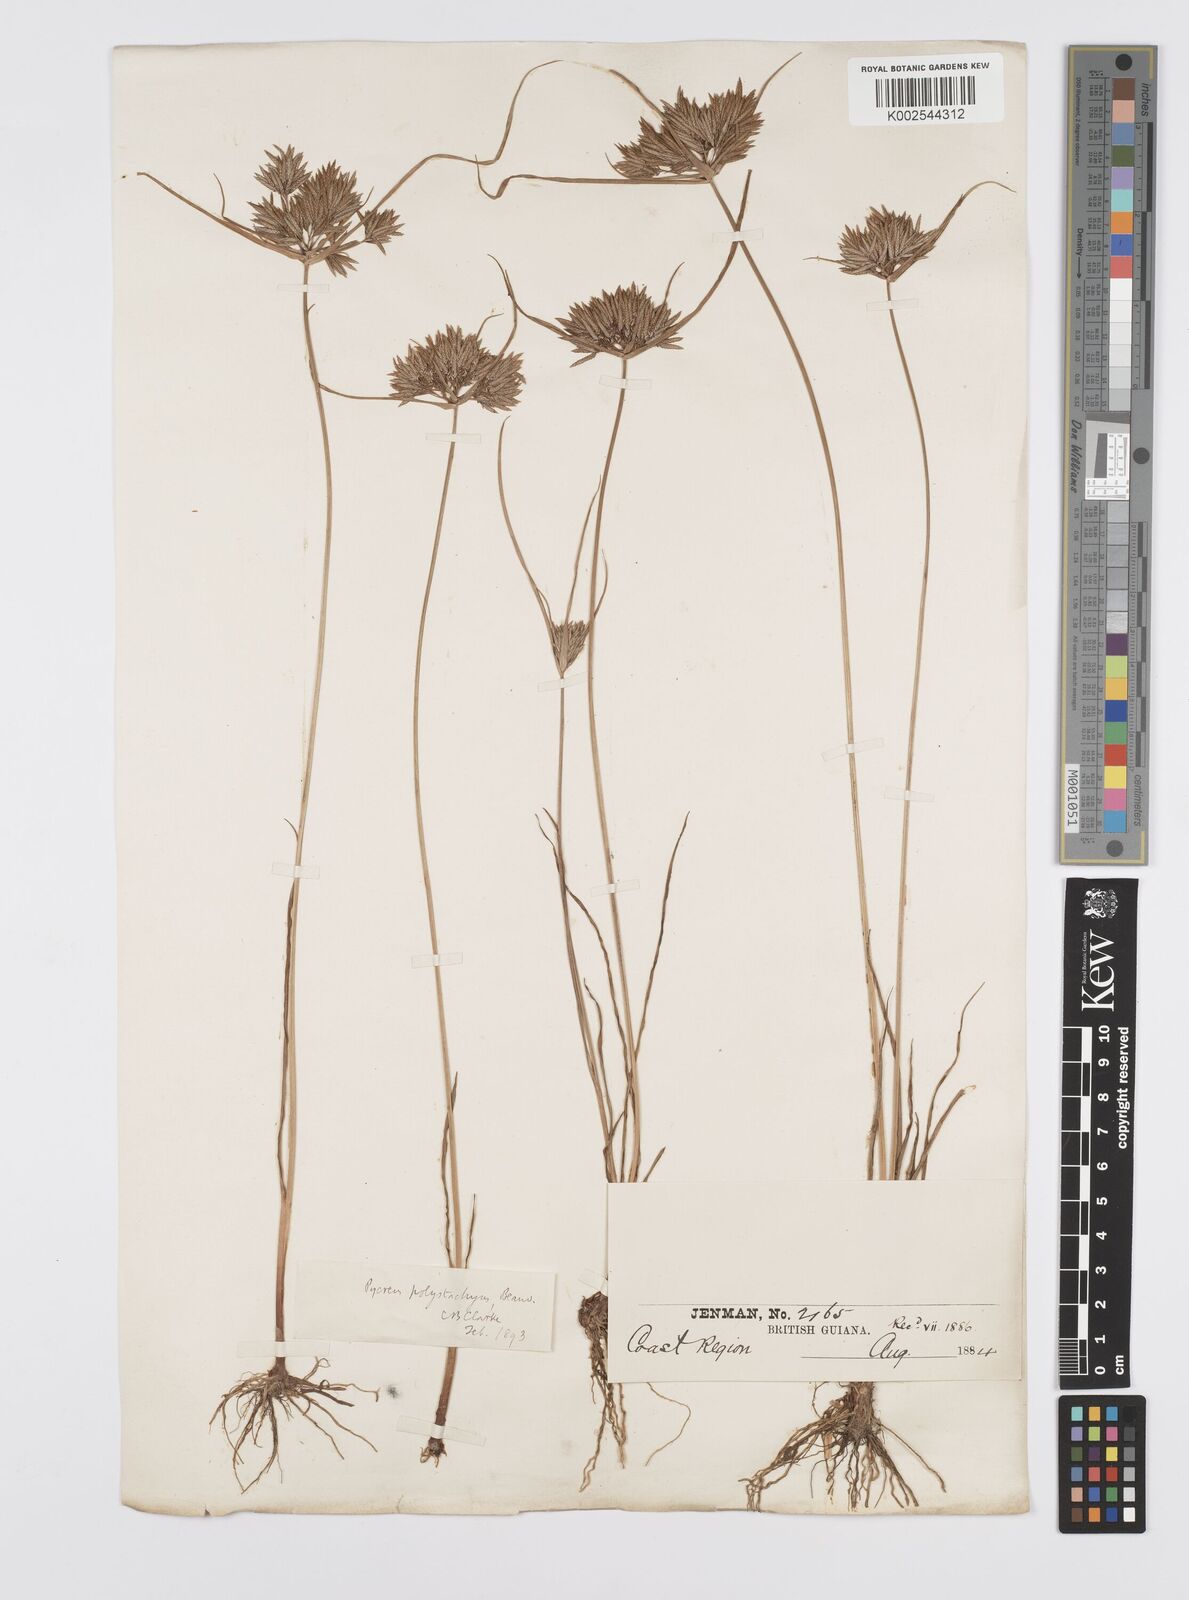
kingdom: Plantae
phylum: Tracheophyta
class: Liliopsida
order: Poales
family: Cyperaceae
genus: Cyperus
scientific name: Cyperus polystachyos
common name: Bunchy flat sedge
